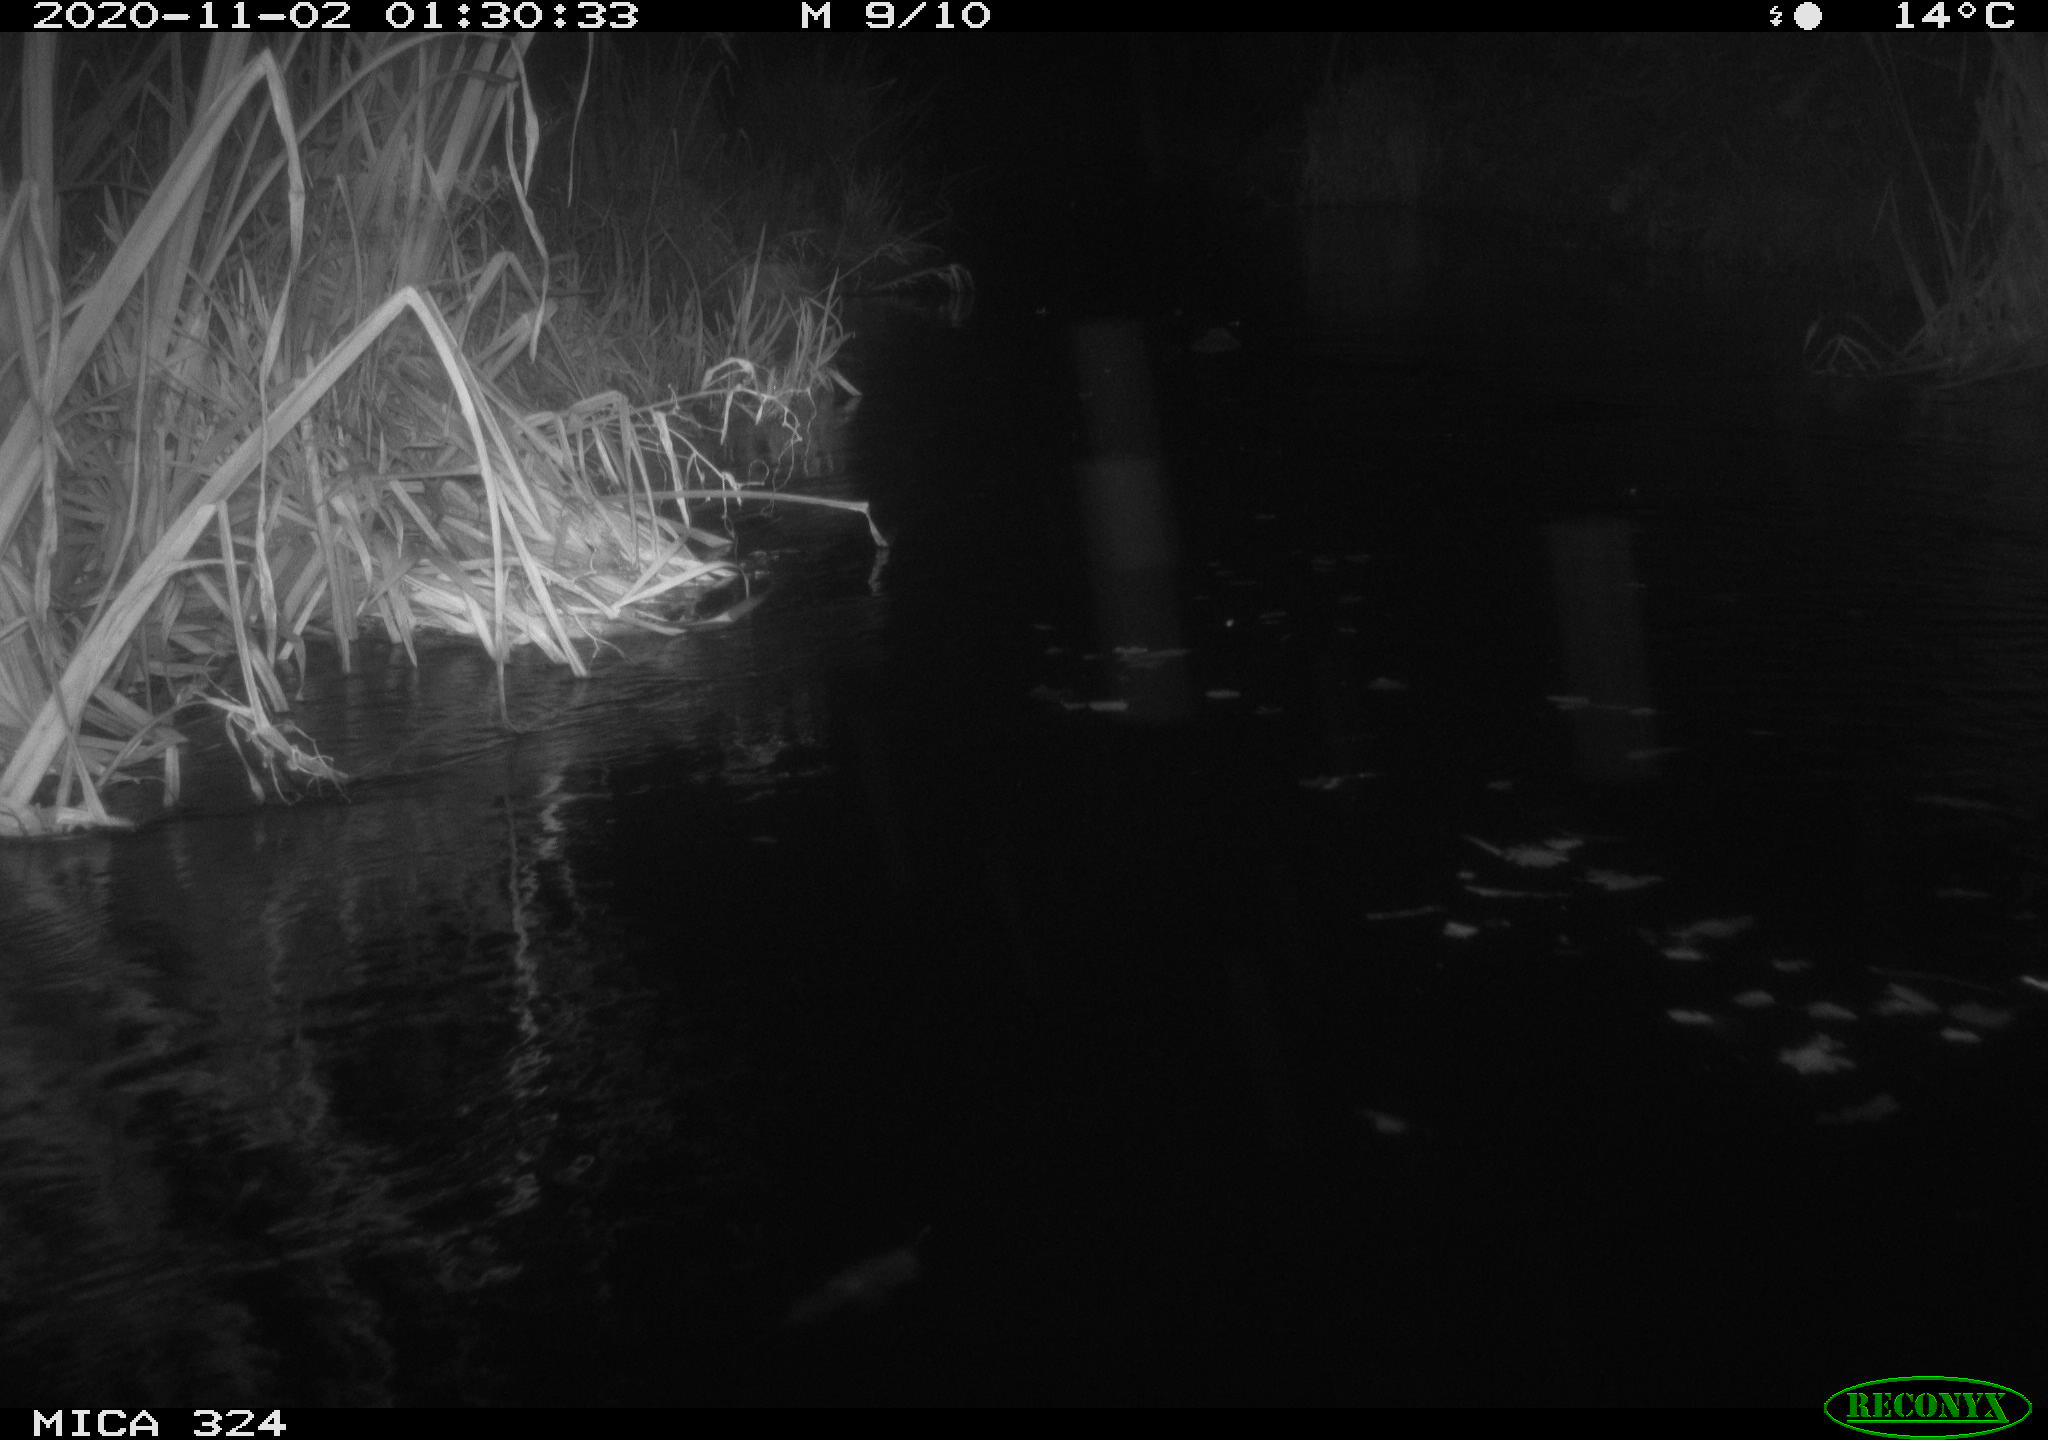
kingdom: Animalia
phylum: Chordata
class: Mammalia
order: Rodentia
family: Myocastoridae
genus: Myocastor
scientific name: Myocastor coypus
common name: Coypu
